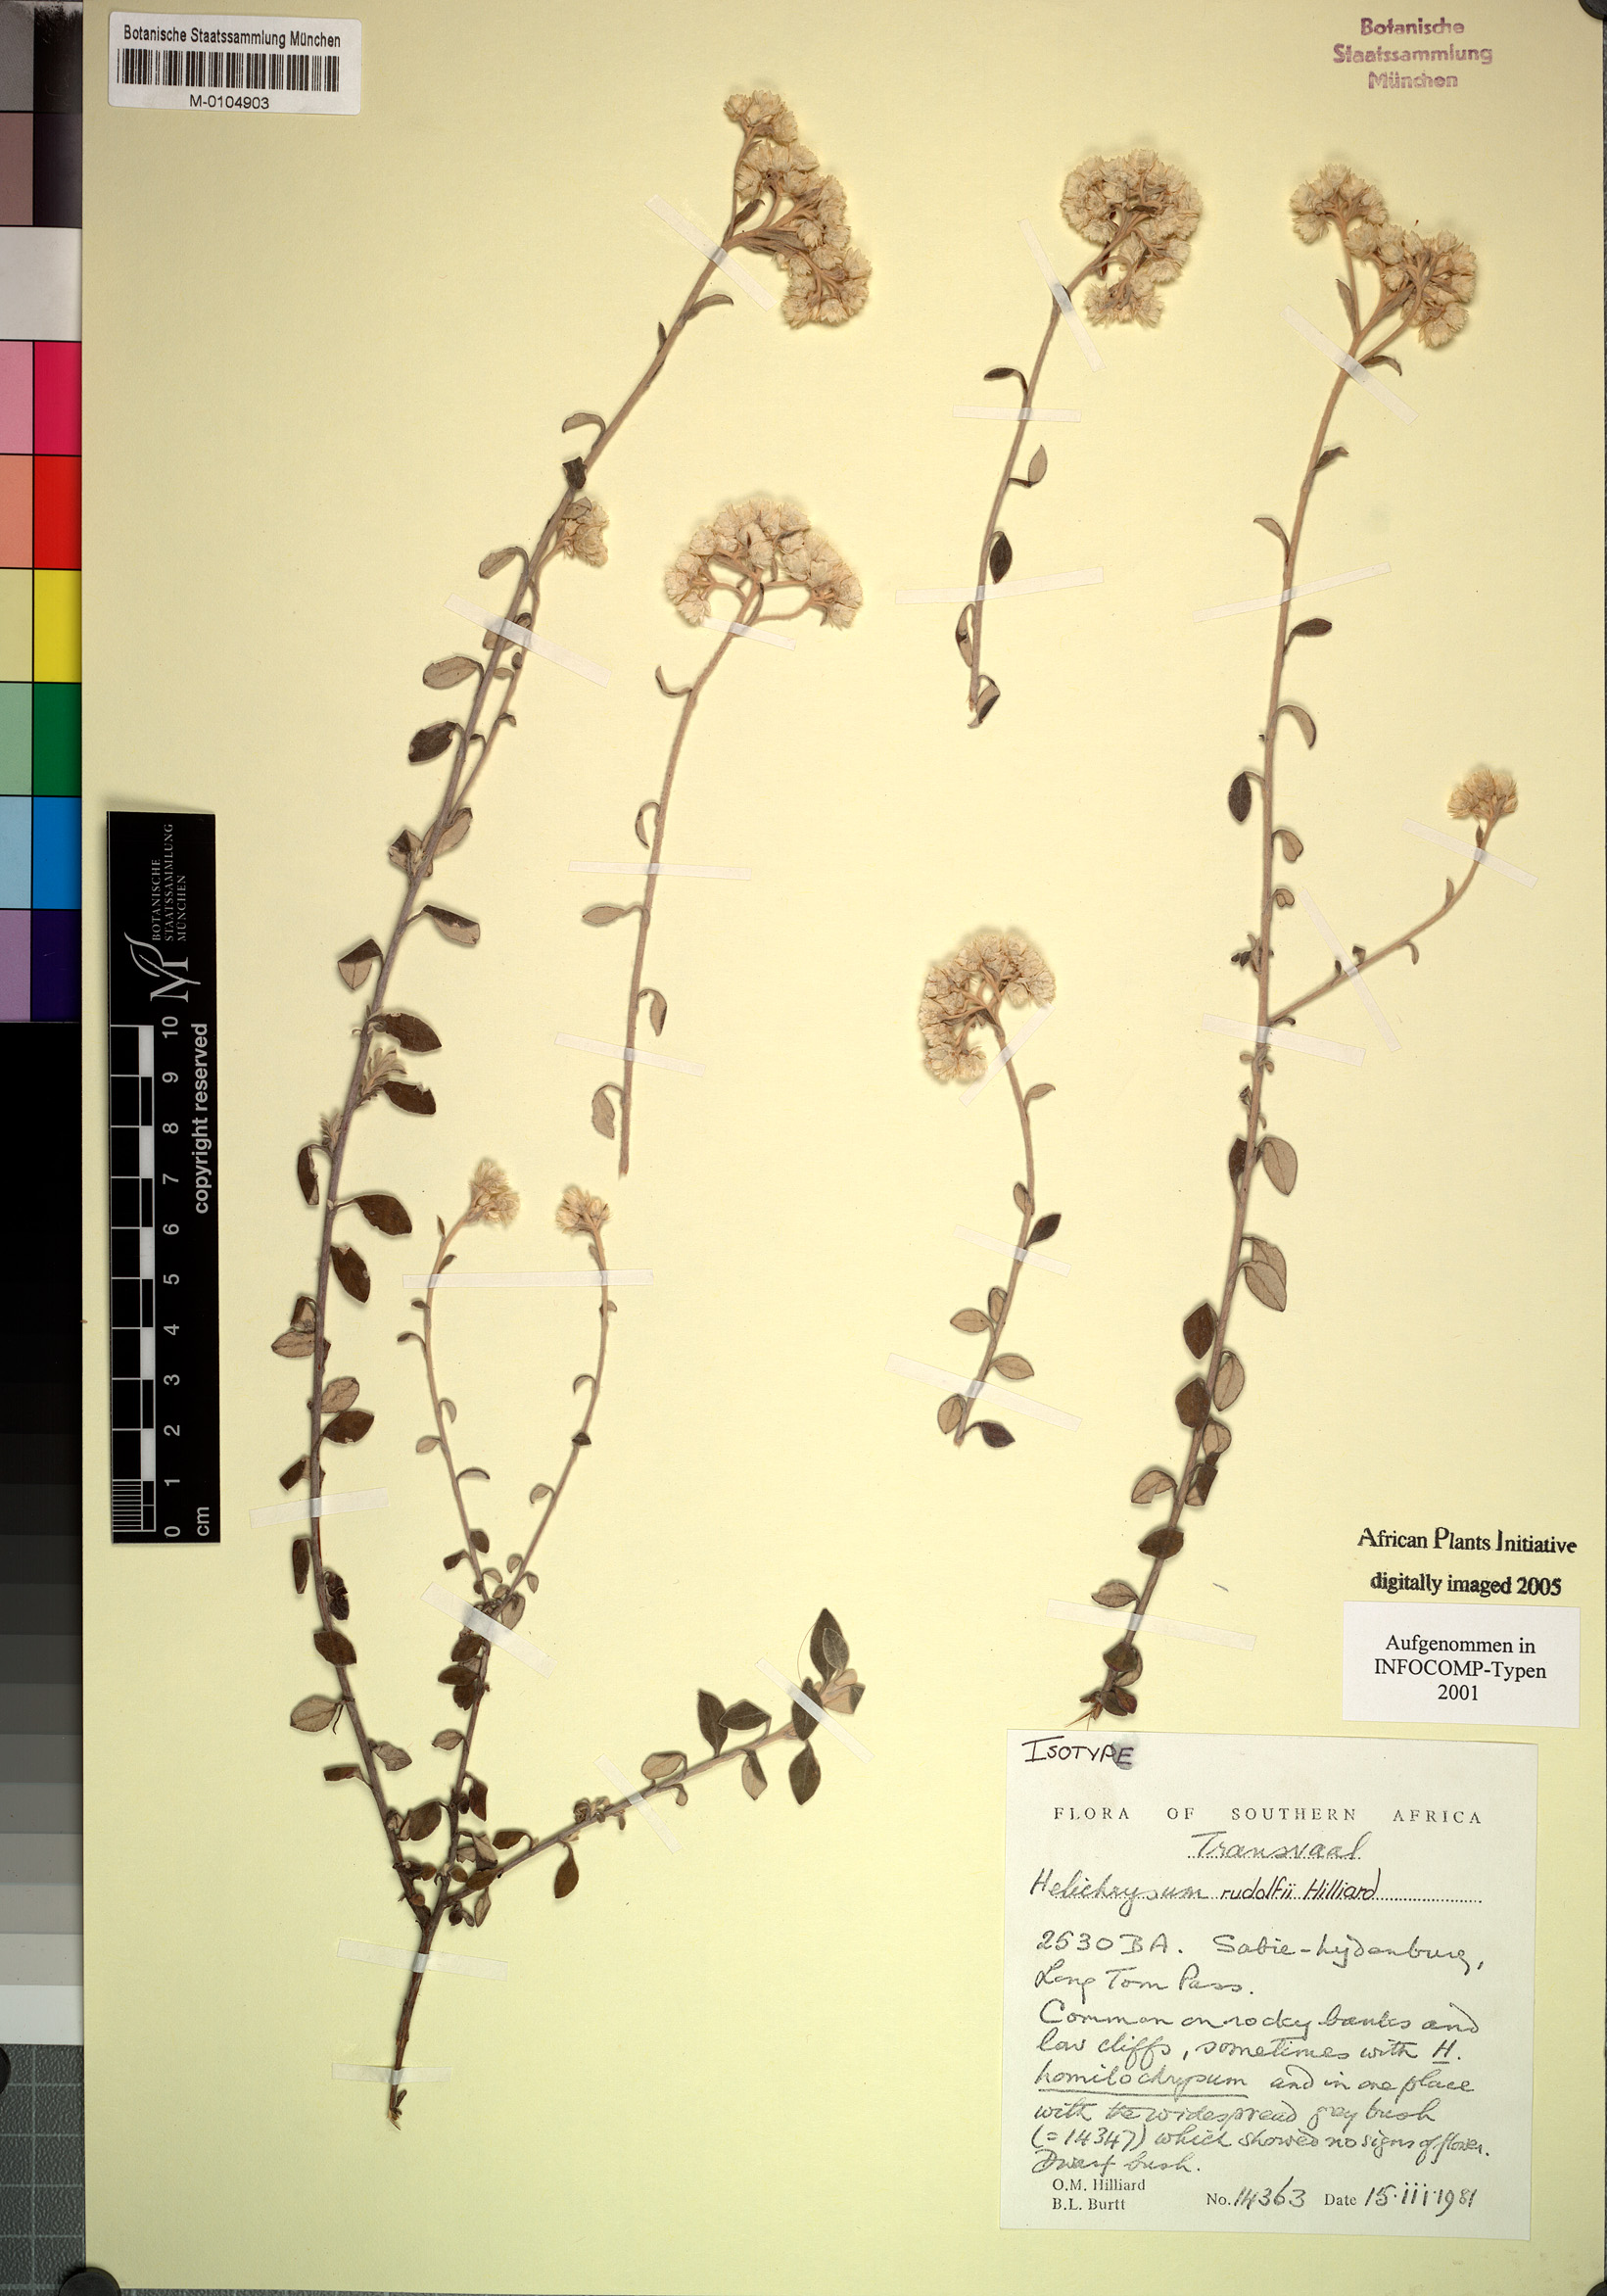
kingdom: Plantae
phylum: Tracheophyta
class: Magnoliopsida
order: Asterales
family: Asteraceae
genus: Helichrysum
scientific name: Helichrysum rudolfii
